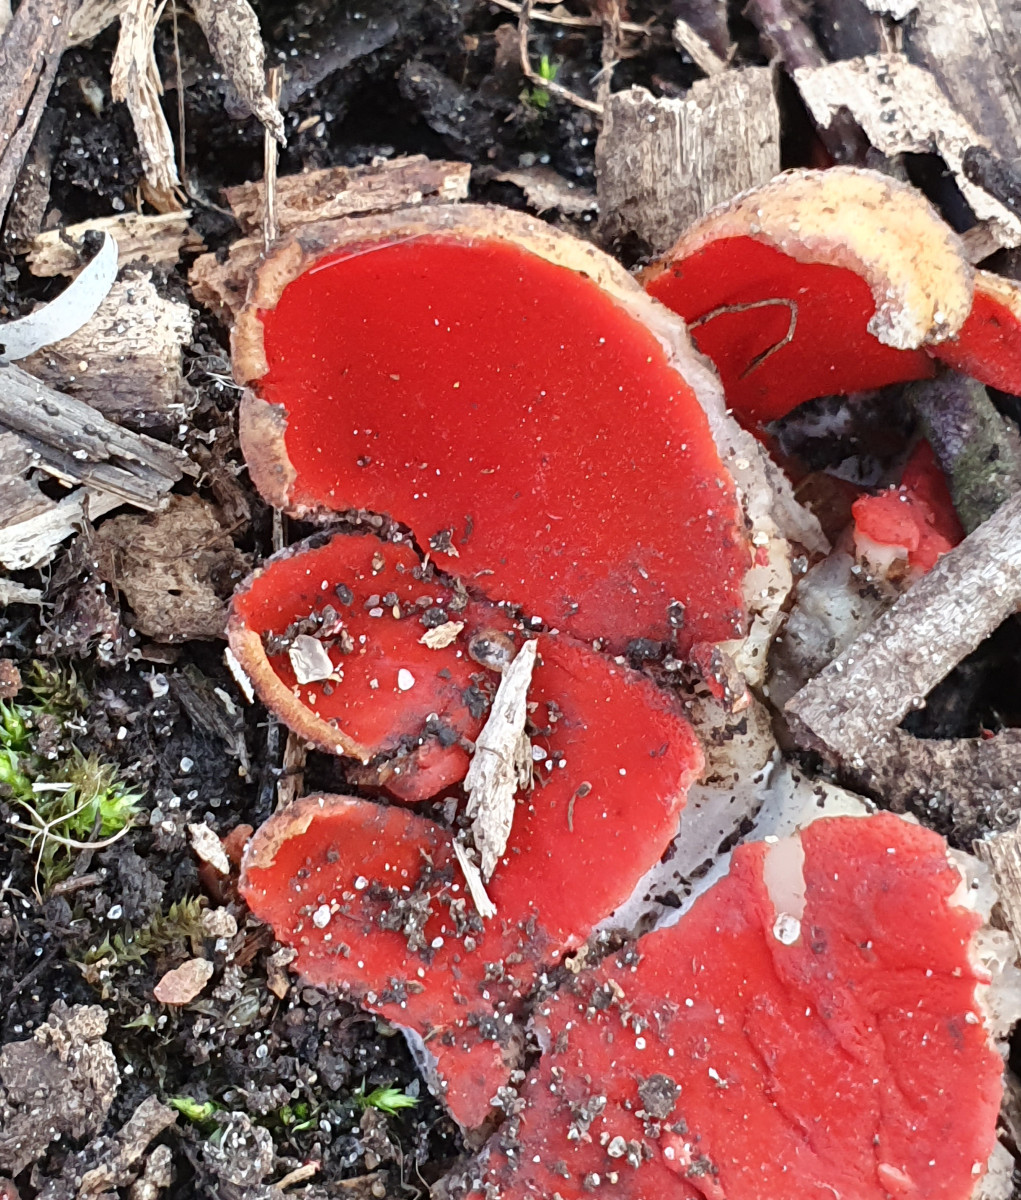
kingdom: Fungi
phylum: Ascomycota
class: Pezizomycetes
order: Pezizales
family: Sarcoscyphaceae
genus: Sarcoscypha
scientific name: Sarcoscypha austriaca
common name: krølhåret pragtbæger
